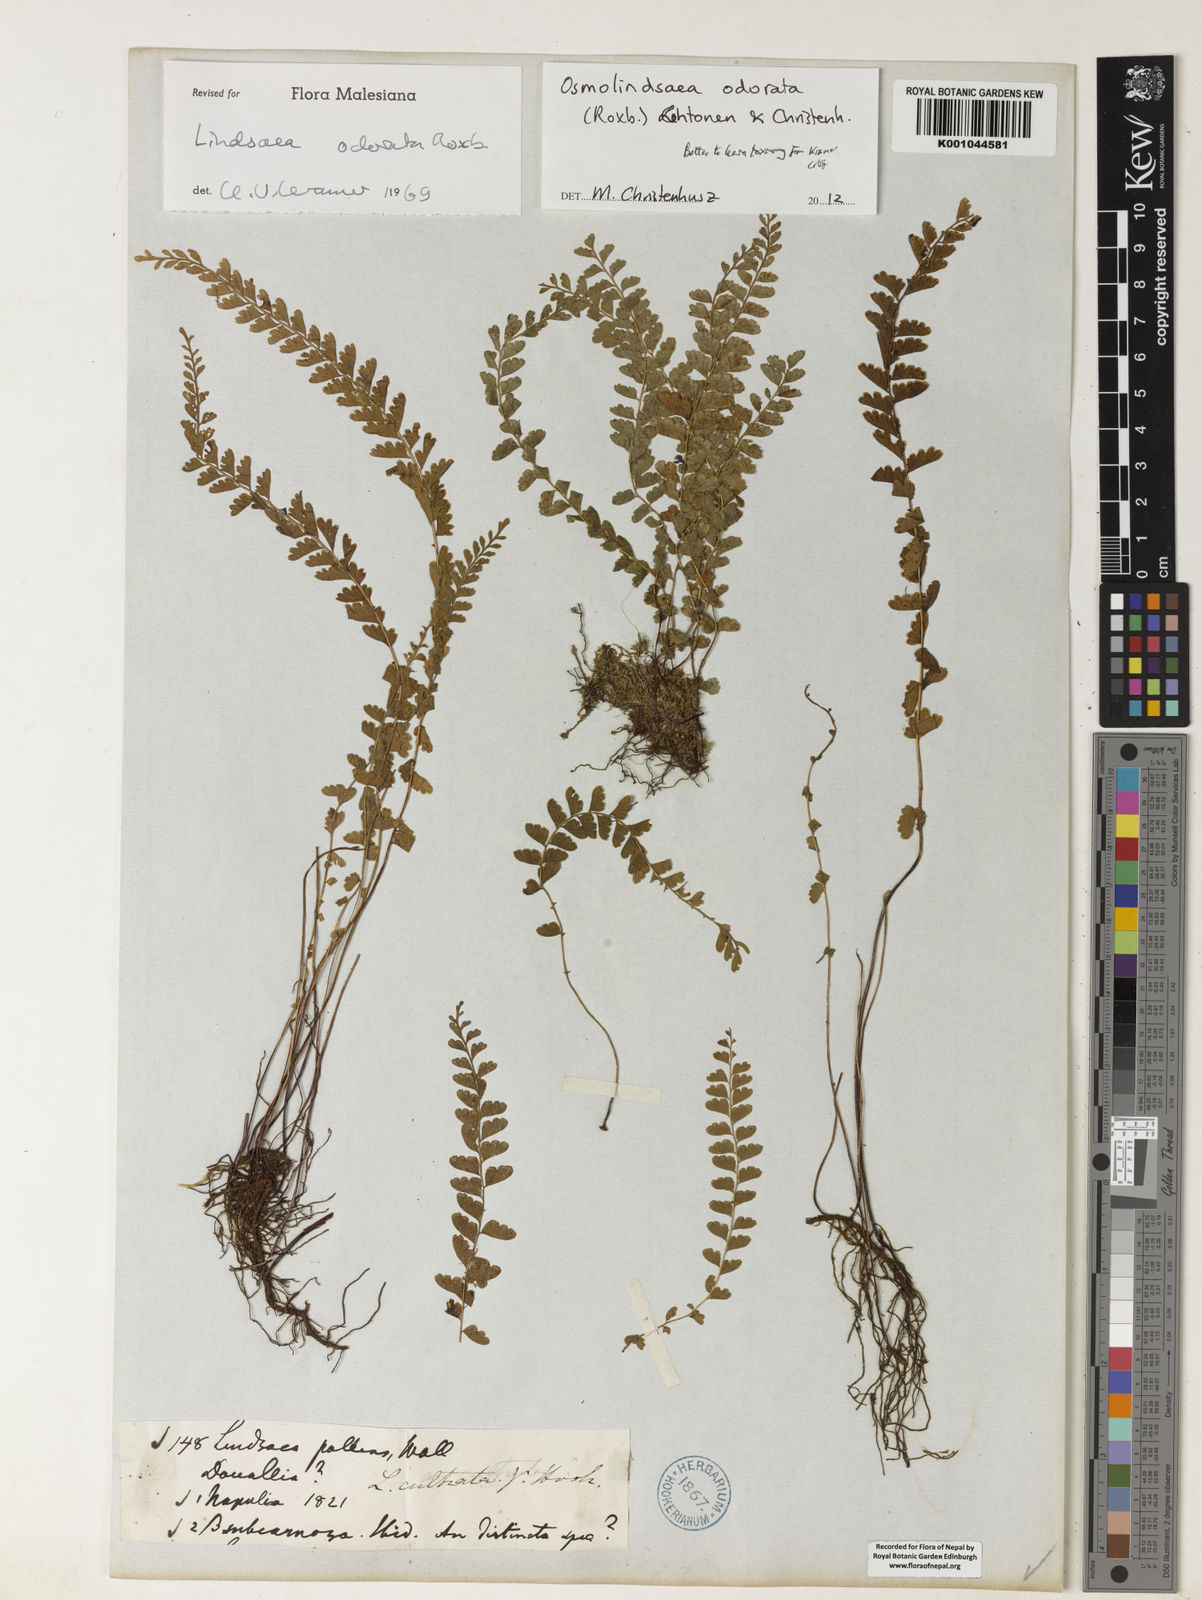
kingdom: Plantae
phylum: Tracheophyta
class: Polypodiopsida
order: Polypodiales
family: Lindsaeaceae
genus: Osmolindsaea
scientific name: Osmolindsaea odorata
